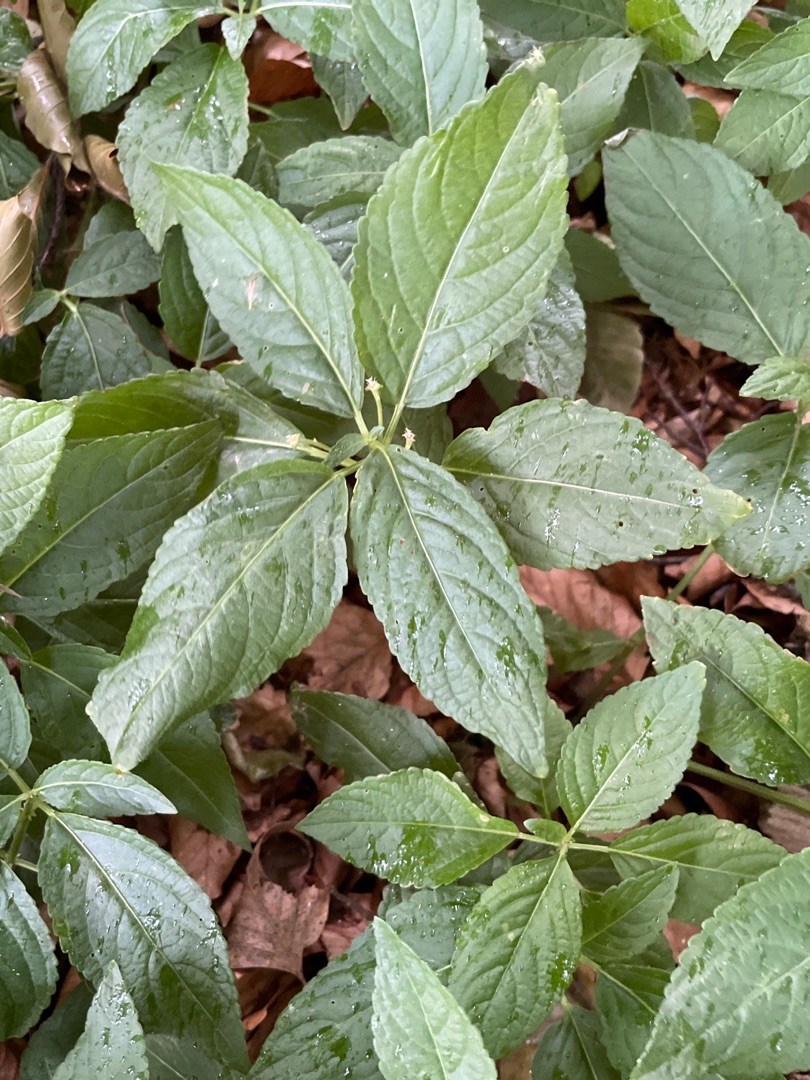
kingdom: Plantae
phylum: Tracheophyta
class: Magnoliopsida
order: Malpighiales
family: Euphorbiaceae
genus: Mercurialis
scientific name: Mercurialis perennis
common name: Almindelig bingelurt
